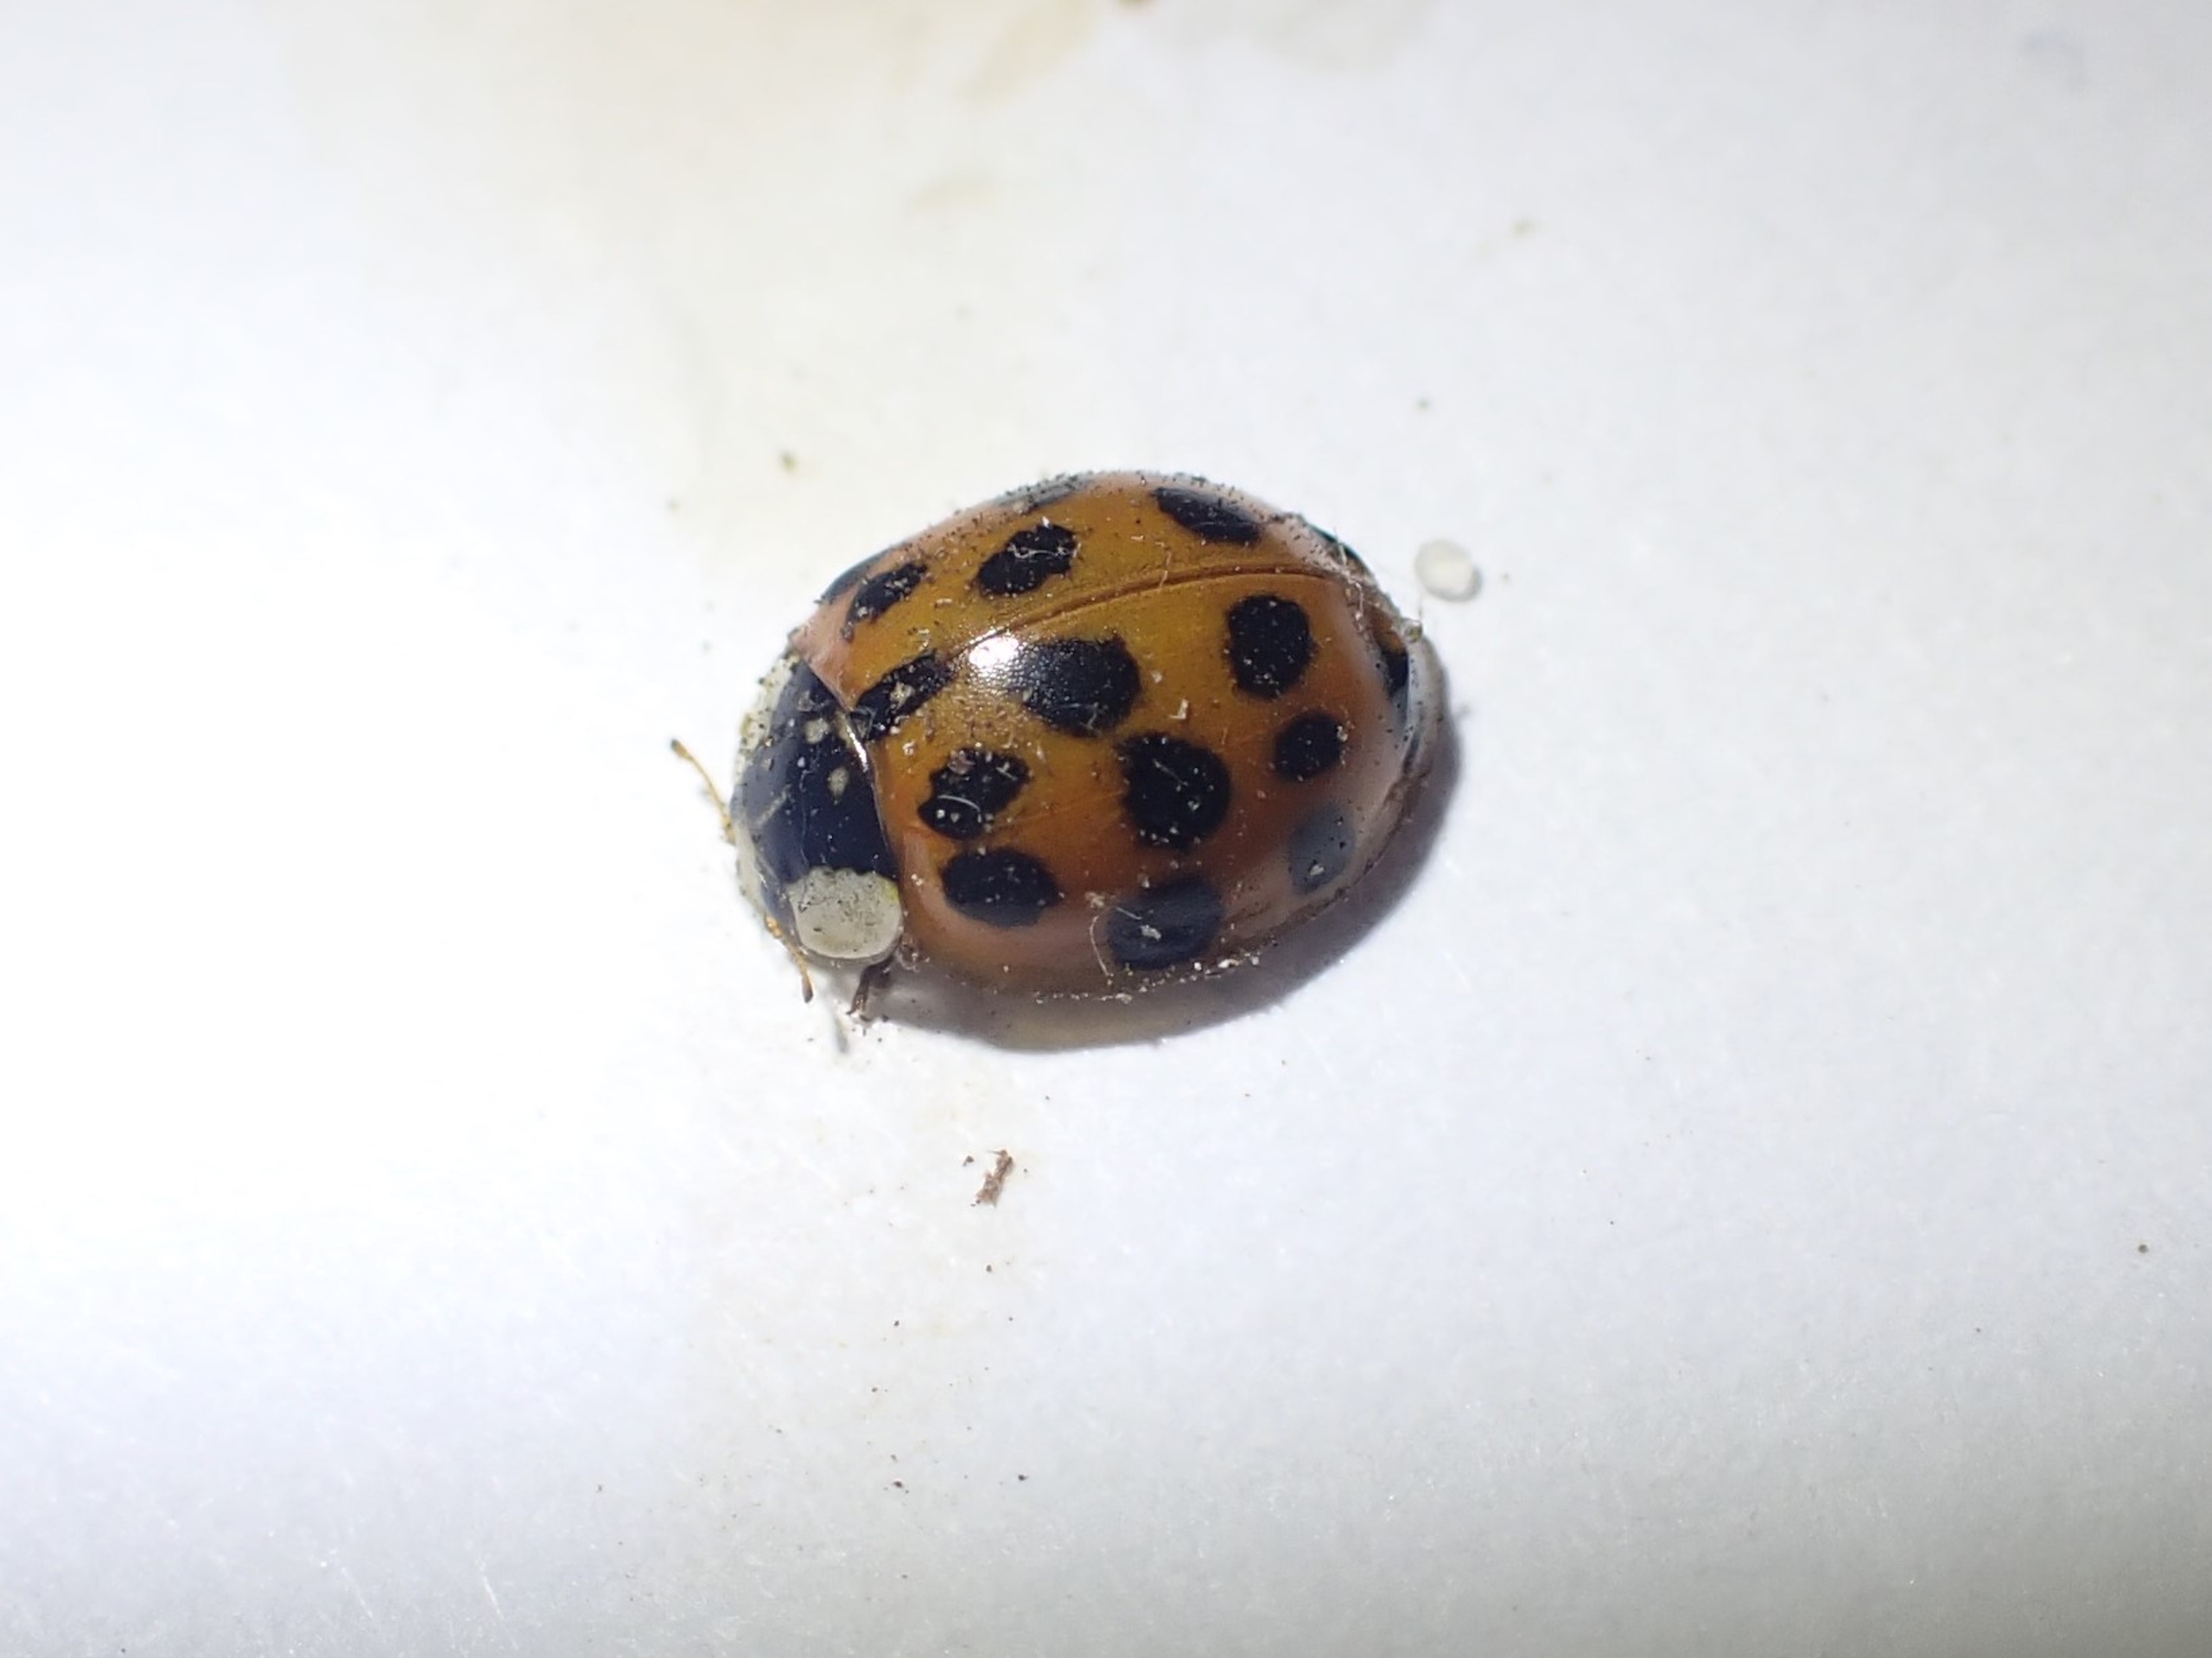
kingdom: Animalia
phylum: Arthropoda
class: Insecta
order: Coleoptera
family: Coccinellidae
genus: Harmonia
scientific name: Harmonia axyridis
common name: Harlekinmariehøne
